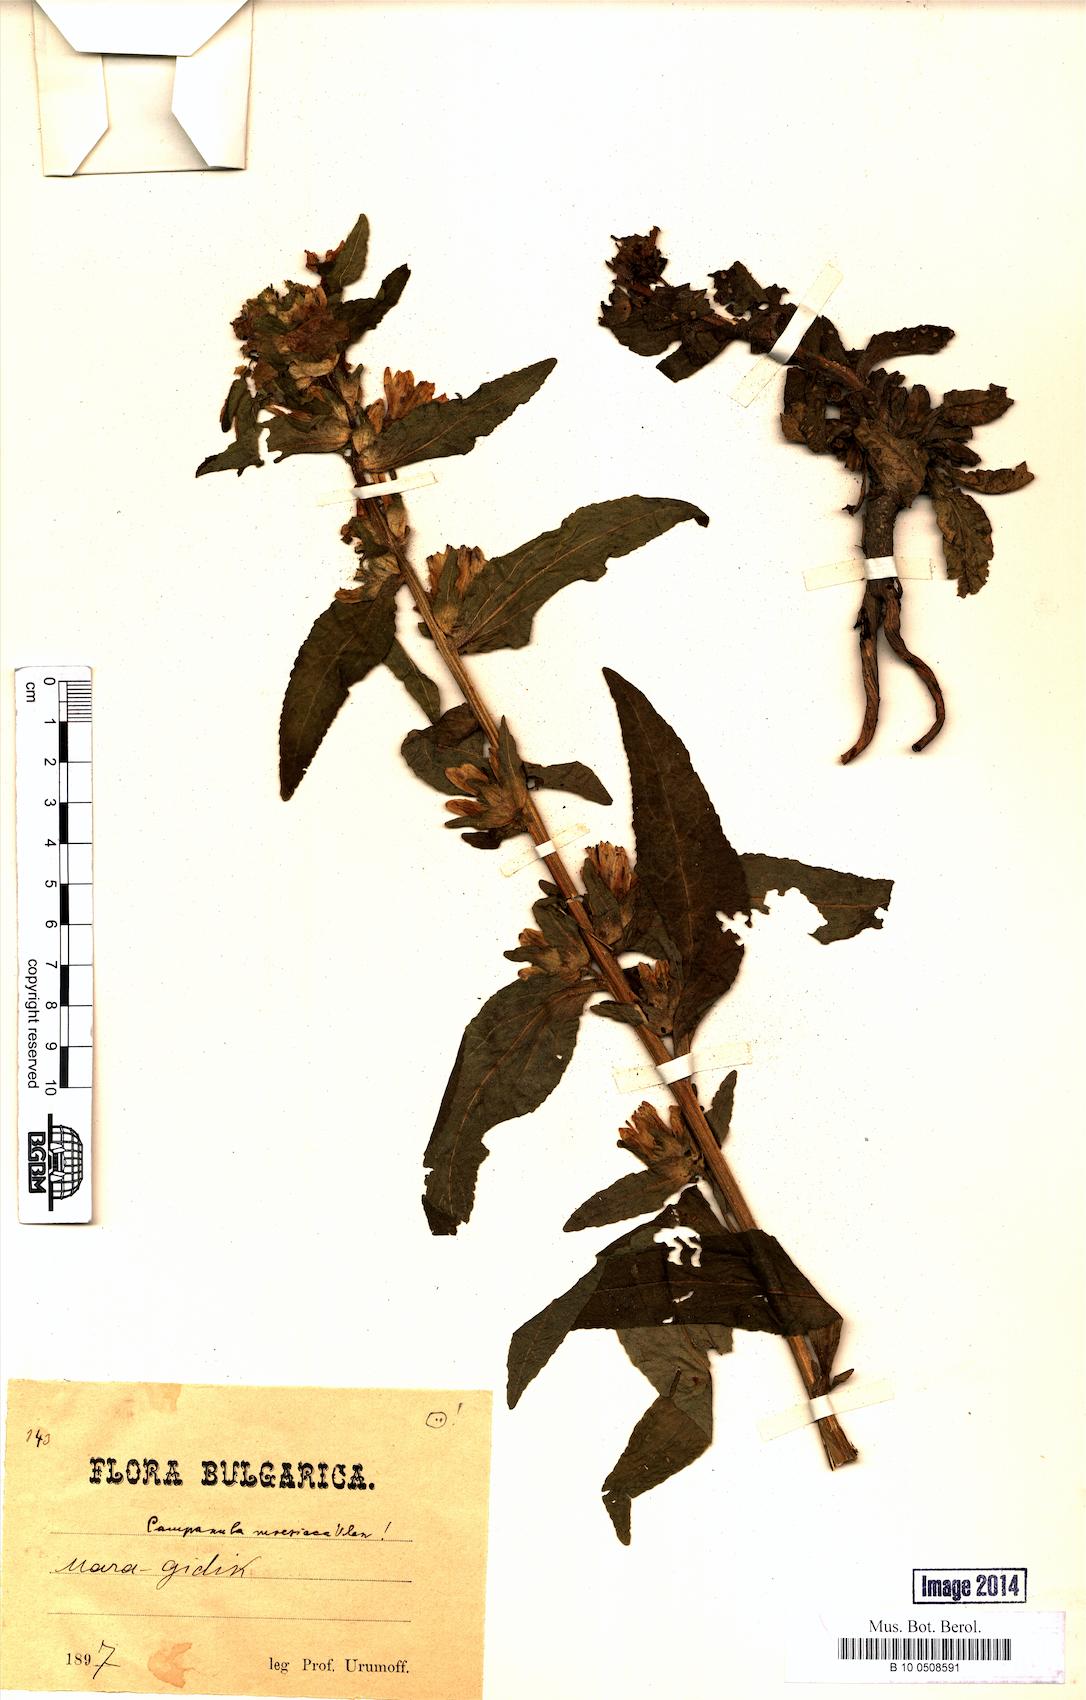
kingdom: Plantae
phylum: Tracheophyta
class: Magnoliopsida
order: Asterales
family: Campanulaceae
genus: Campanula
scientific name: Campanula moesiaca
